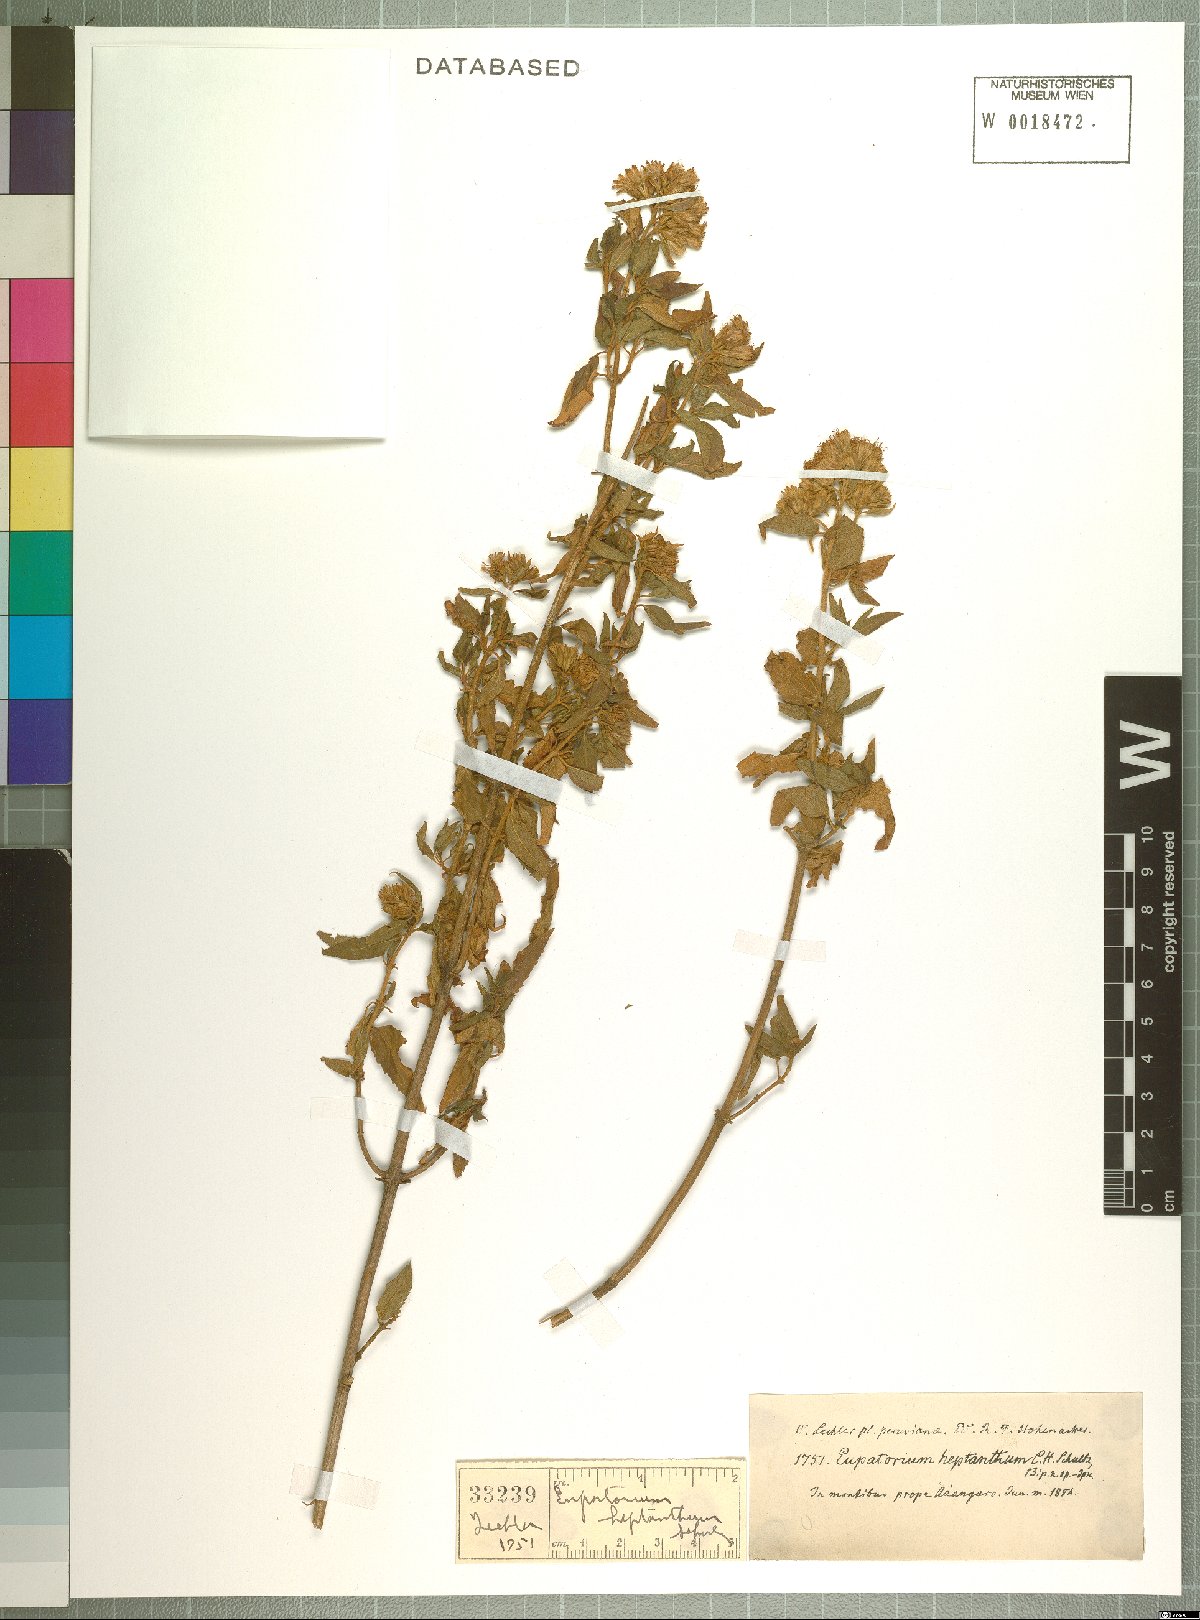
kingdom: Plantae
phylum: Tracheophyta
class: Magnoliopsida
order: Asterales
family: Asteraceae
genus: Ophryosporus
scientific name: Ophryosporus heptanthus
